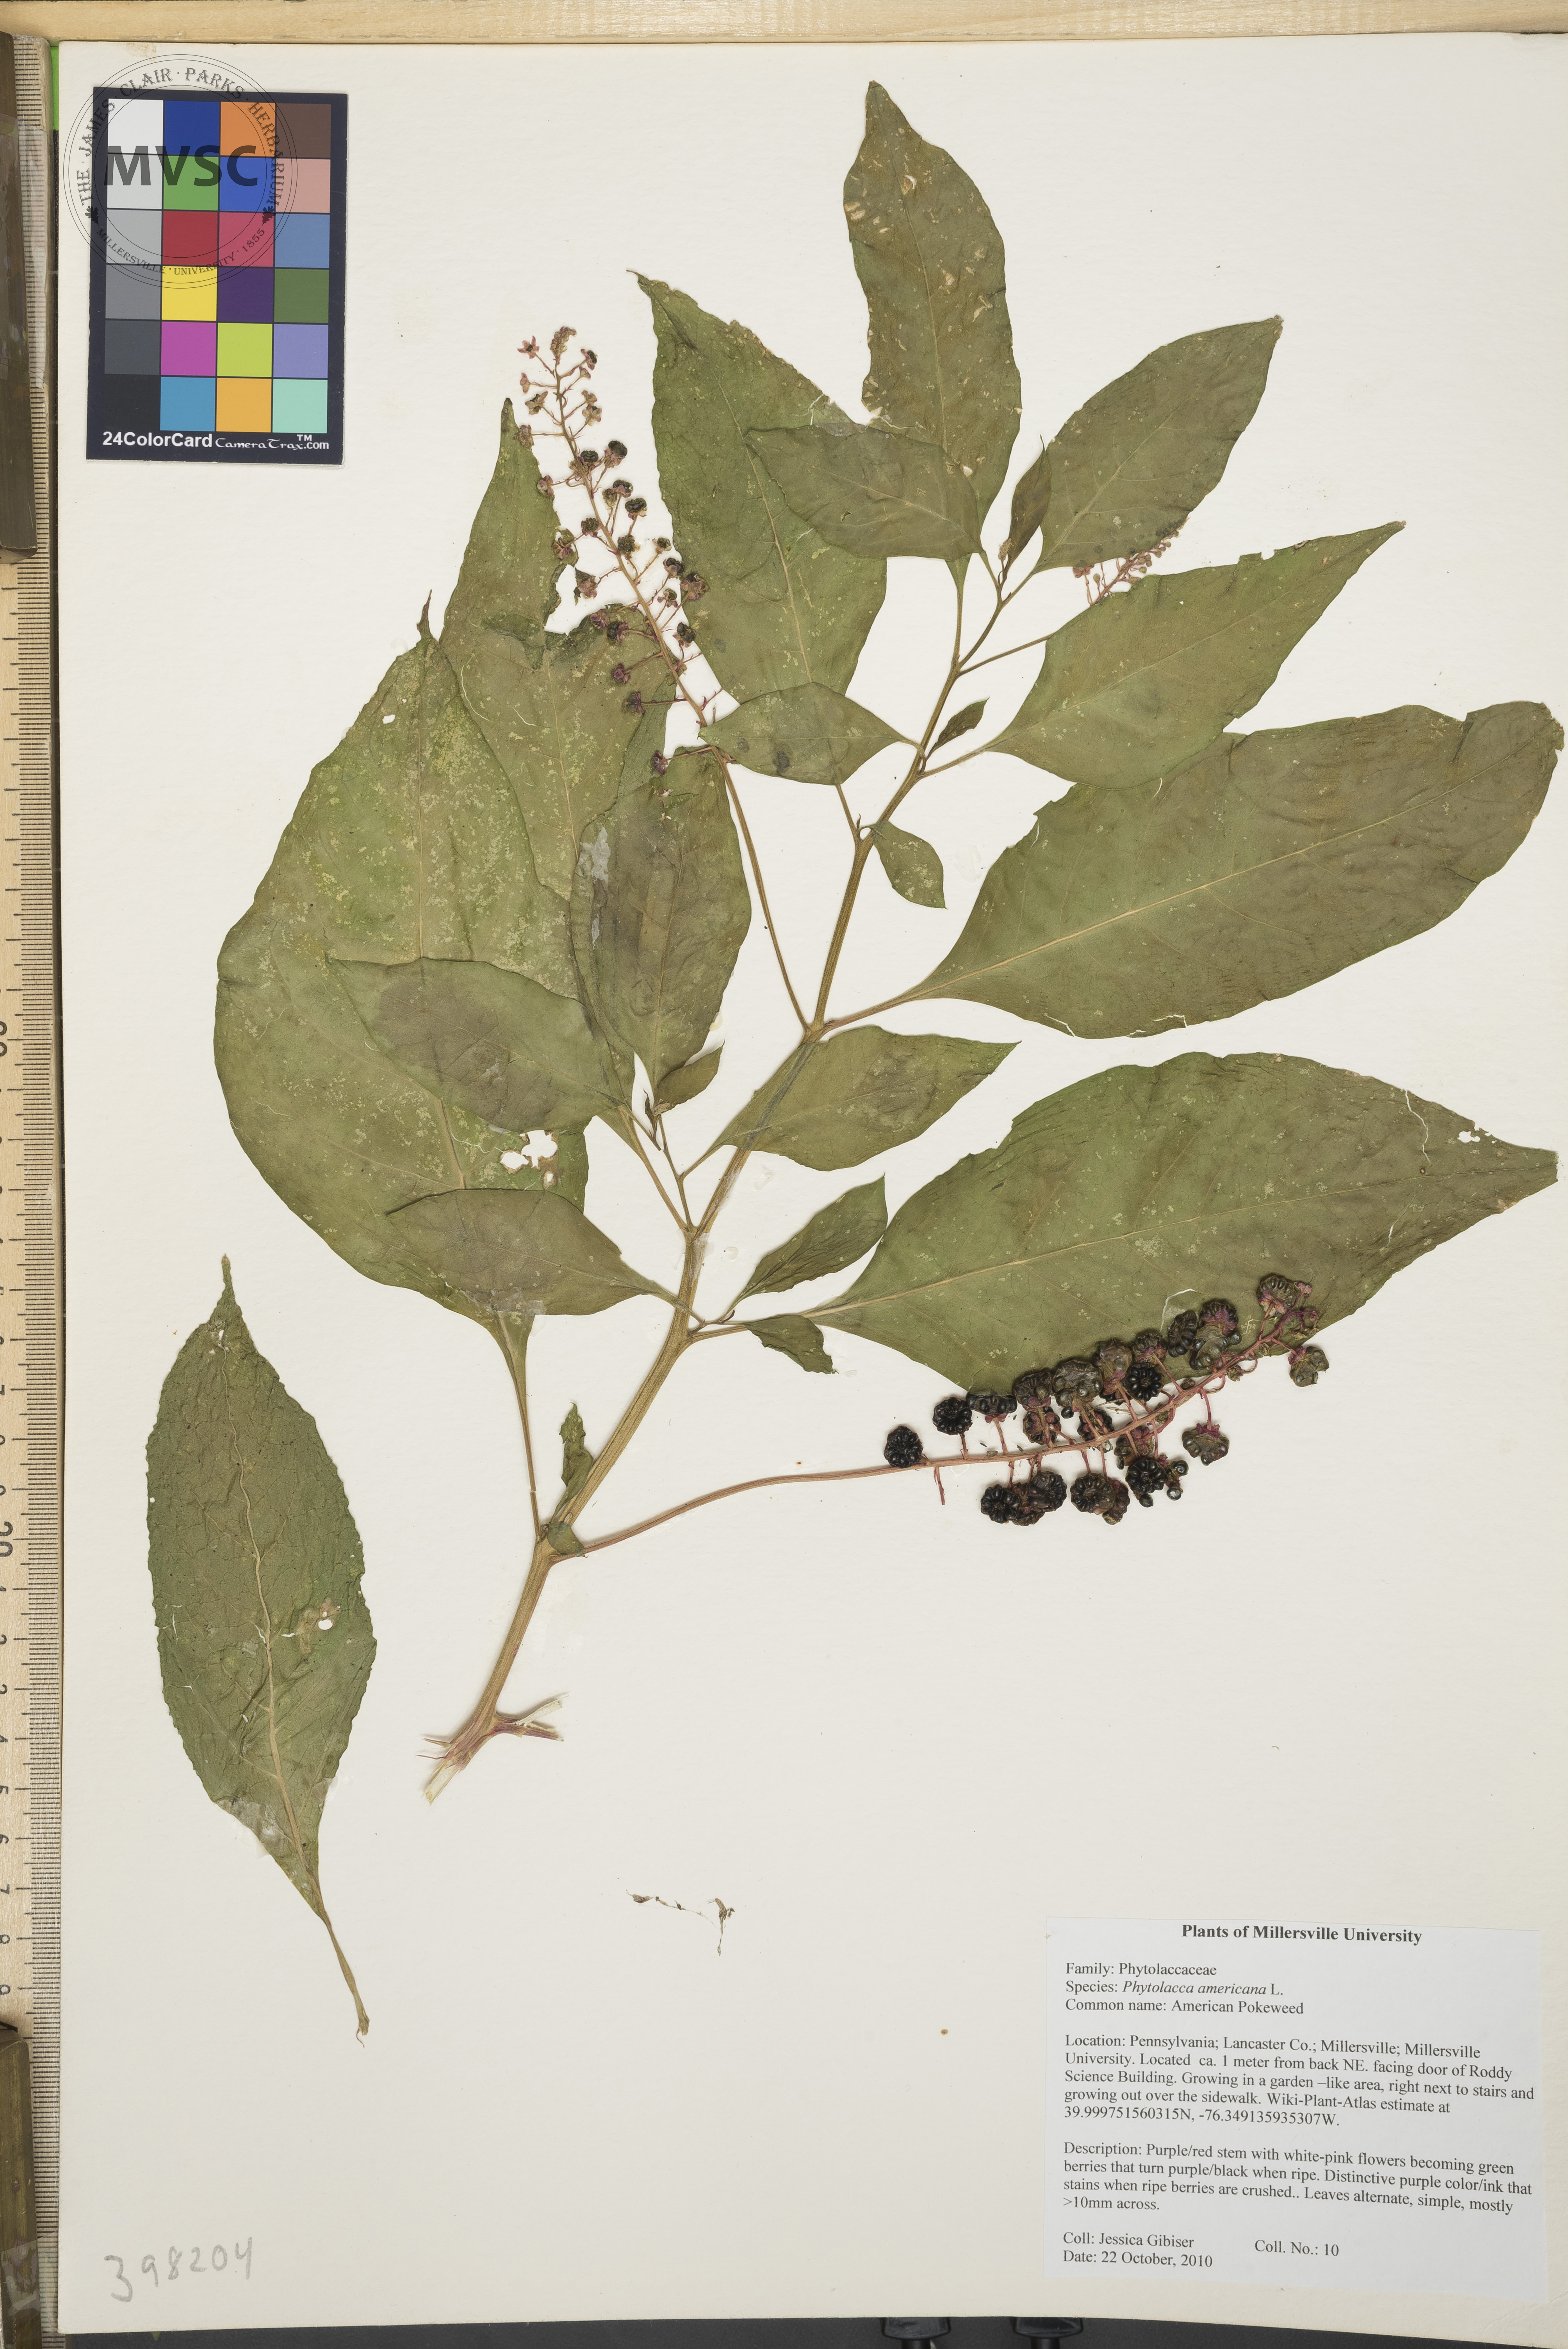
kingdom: Plantae
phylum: Tracheophyta
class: Magnoliopsida
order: Caryophyllales
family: Phytolaccaceae
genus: Phytolacca
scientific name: Phytolacca americana
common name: Pokeweed
